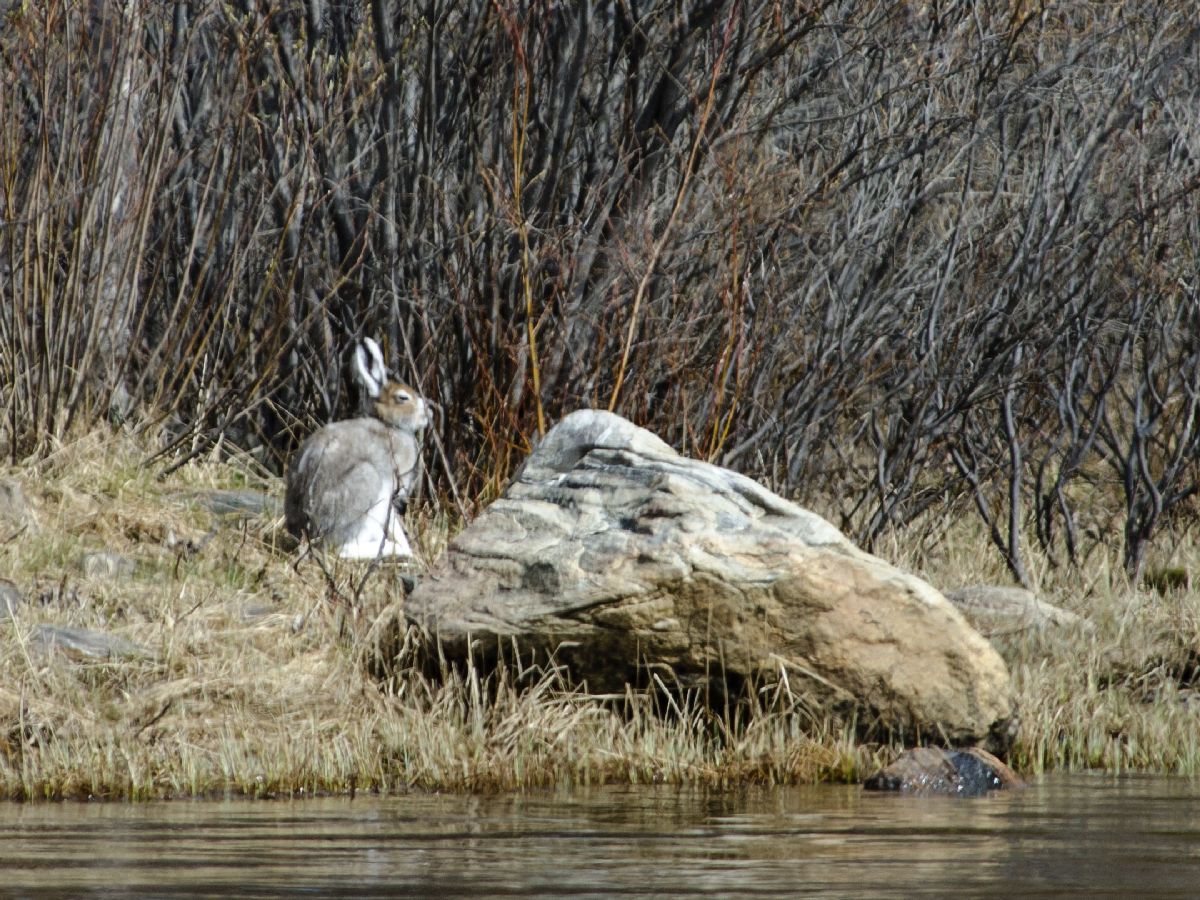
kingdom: Animalia
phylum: Chordata
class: Mammalia
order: Lagomorpha
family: Leporidae
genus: Lepus
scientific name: Lepus europaeus
